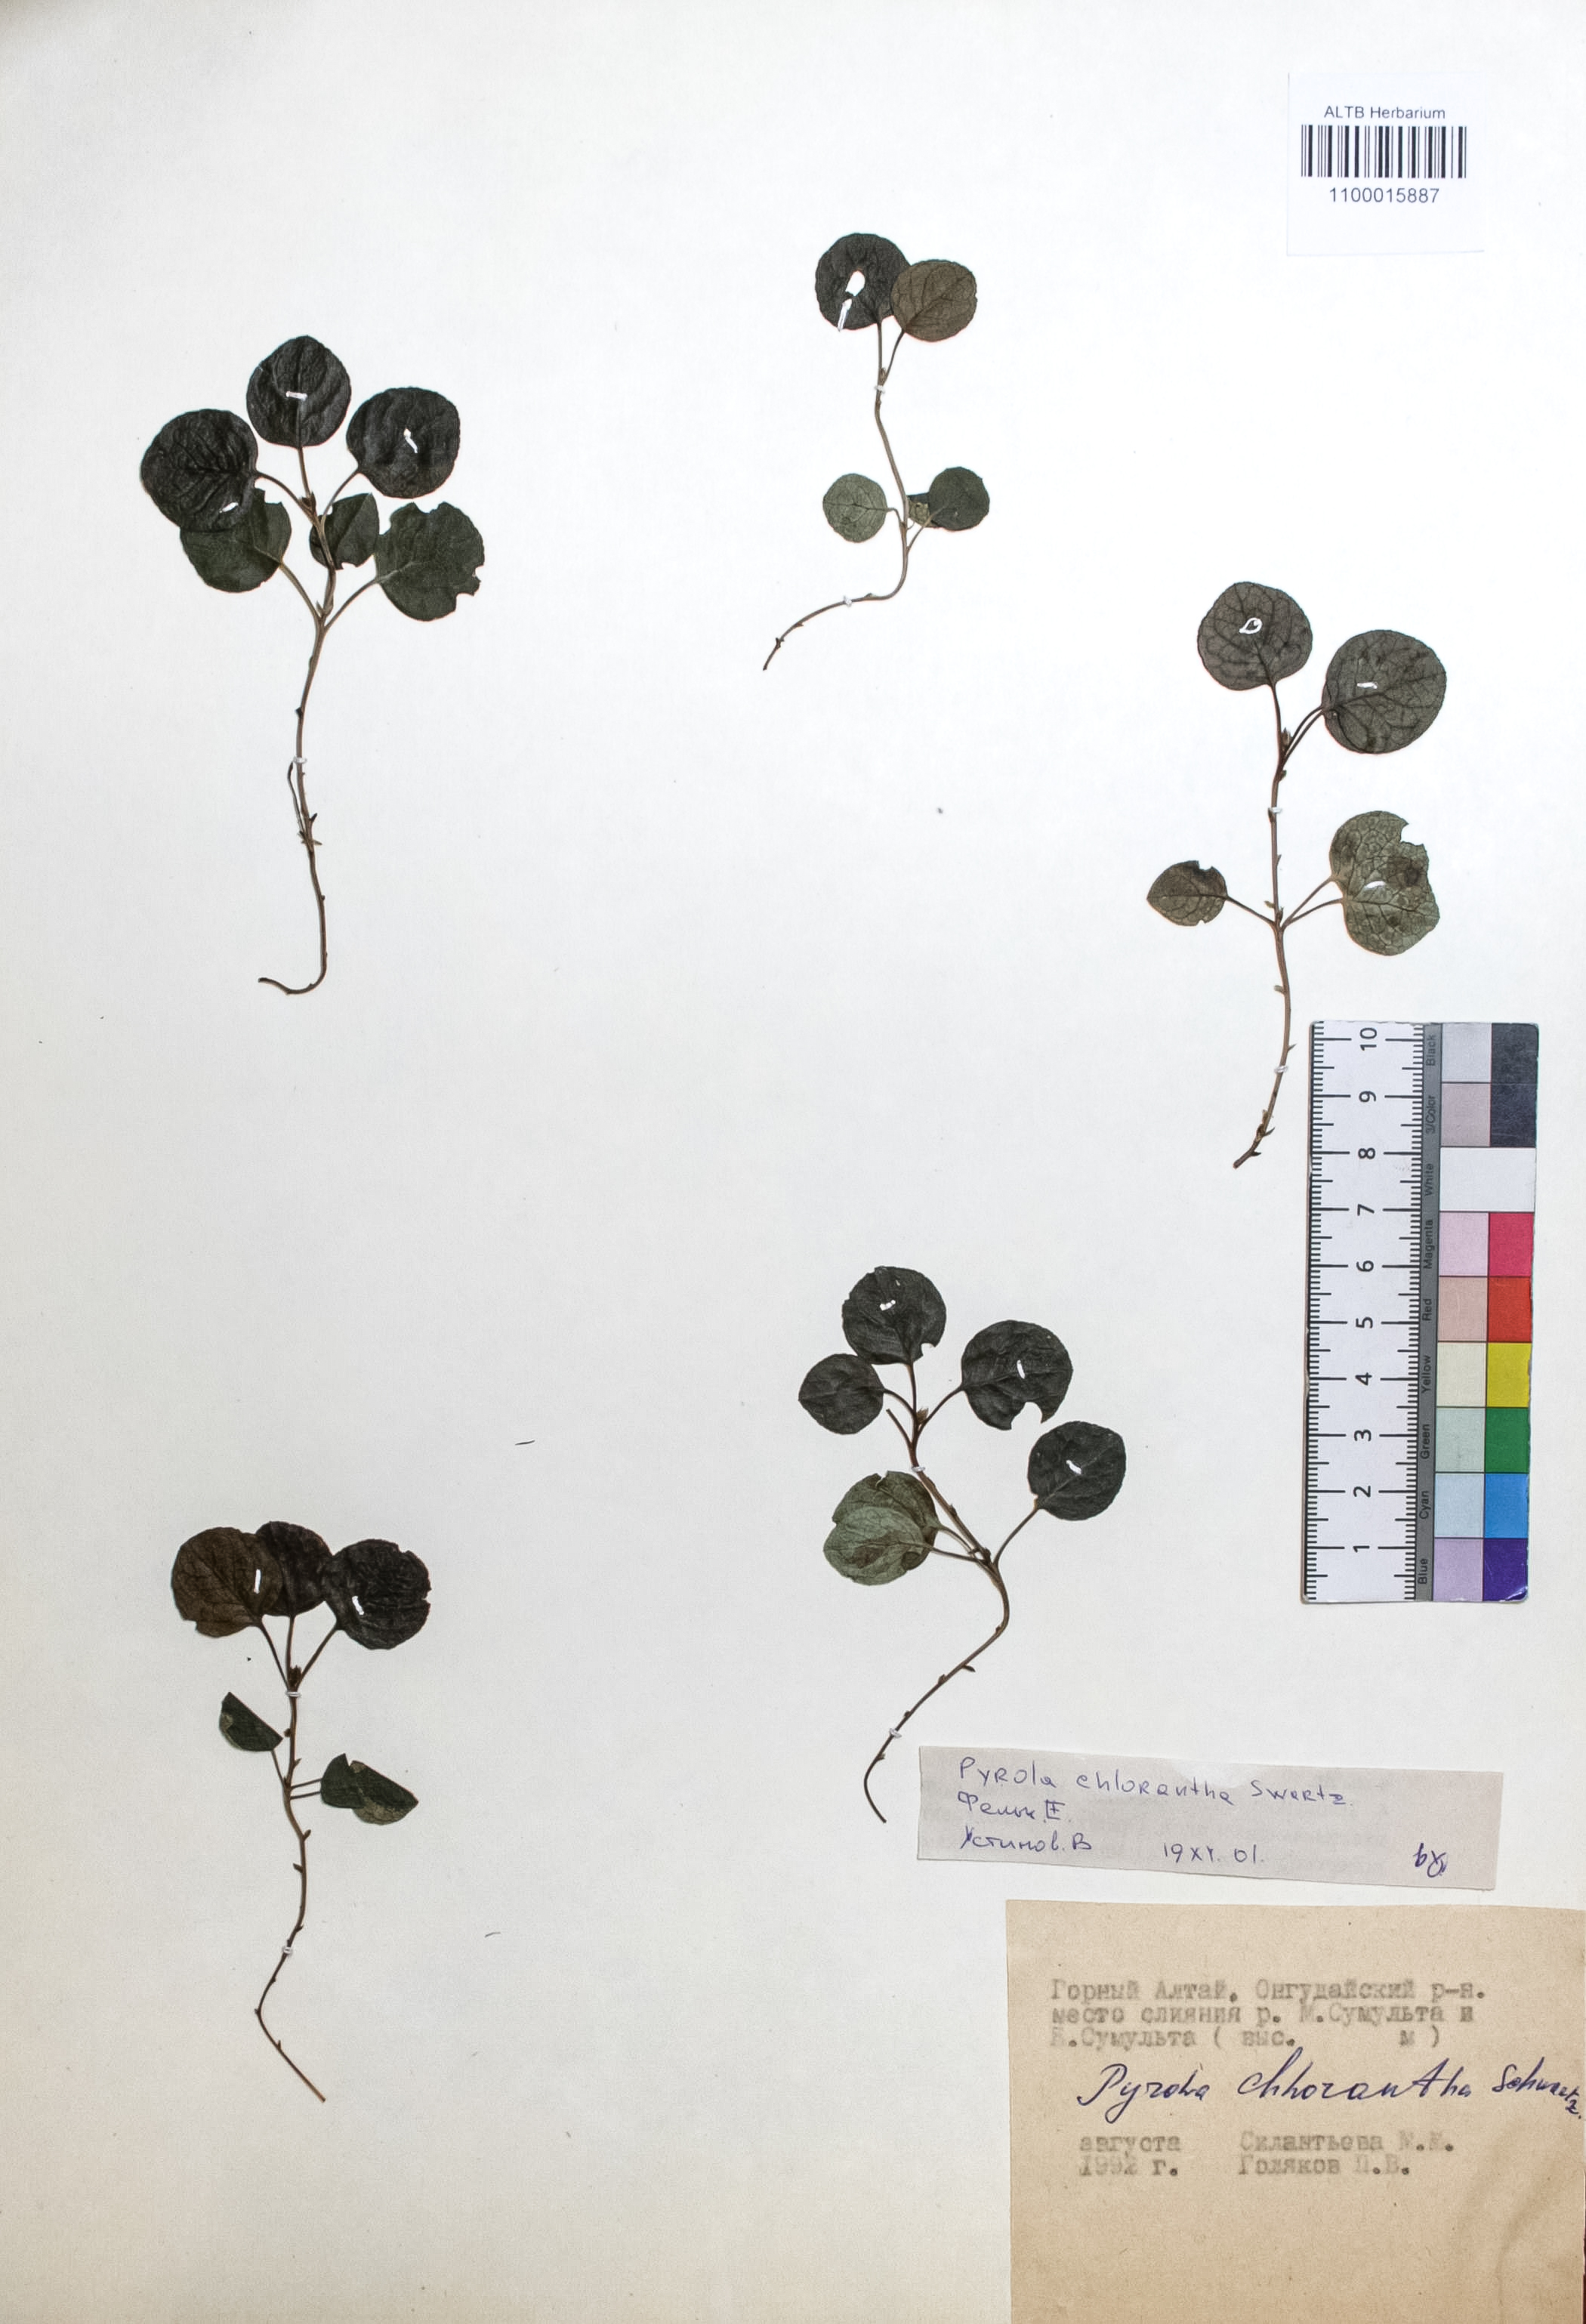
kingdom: Plantae
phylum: Tracheophyta
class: Magnoliopsida
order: Ericales
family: Ericaceae
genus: Pyrola
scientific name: Pyrola chlorantha
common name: Green wintergreen
